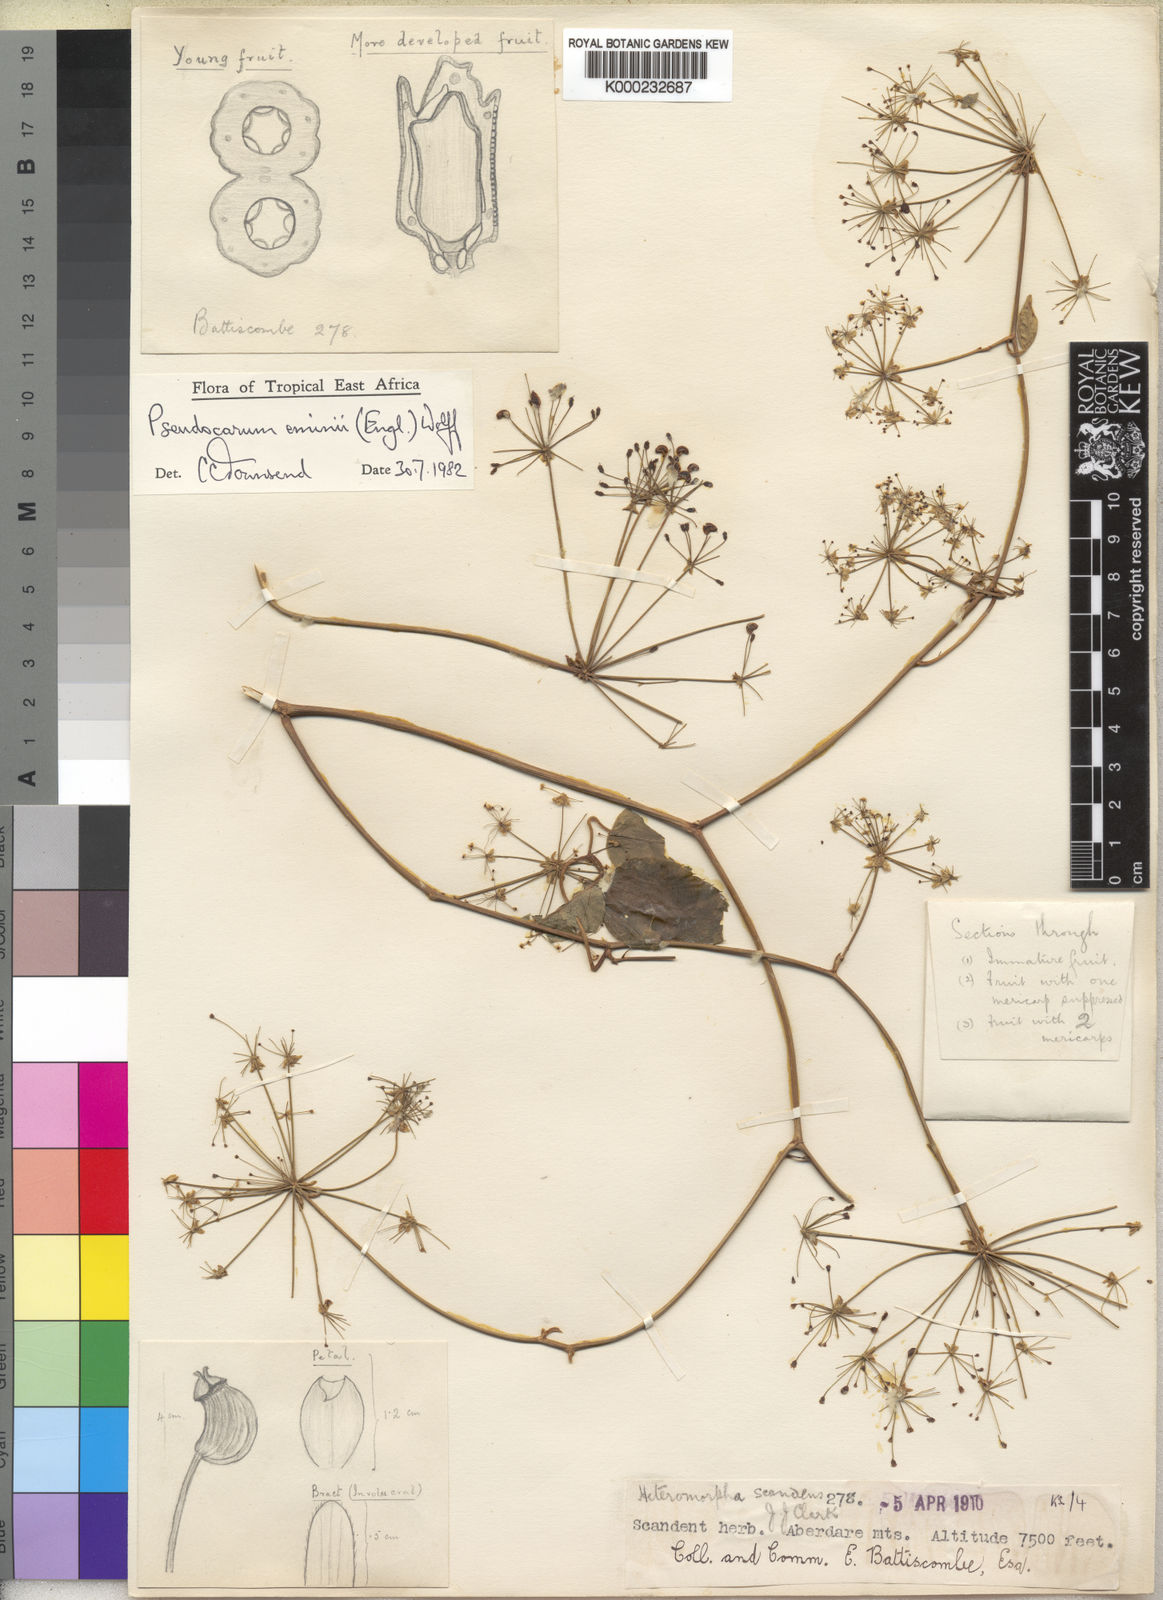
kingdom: Plantae
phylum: Tracheophyta
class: Magnoliopsida
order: Apiales
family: Apiaceae
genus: Pseudocarum
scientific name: Pseudocarum eminii
